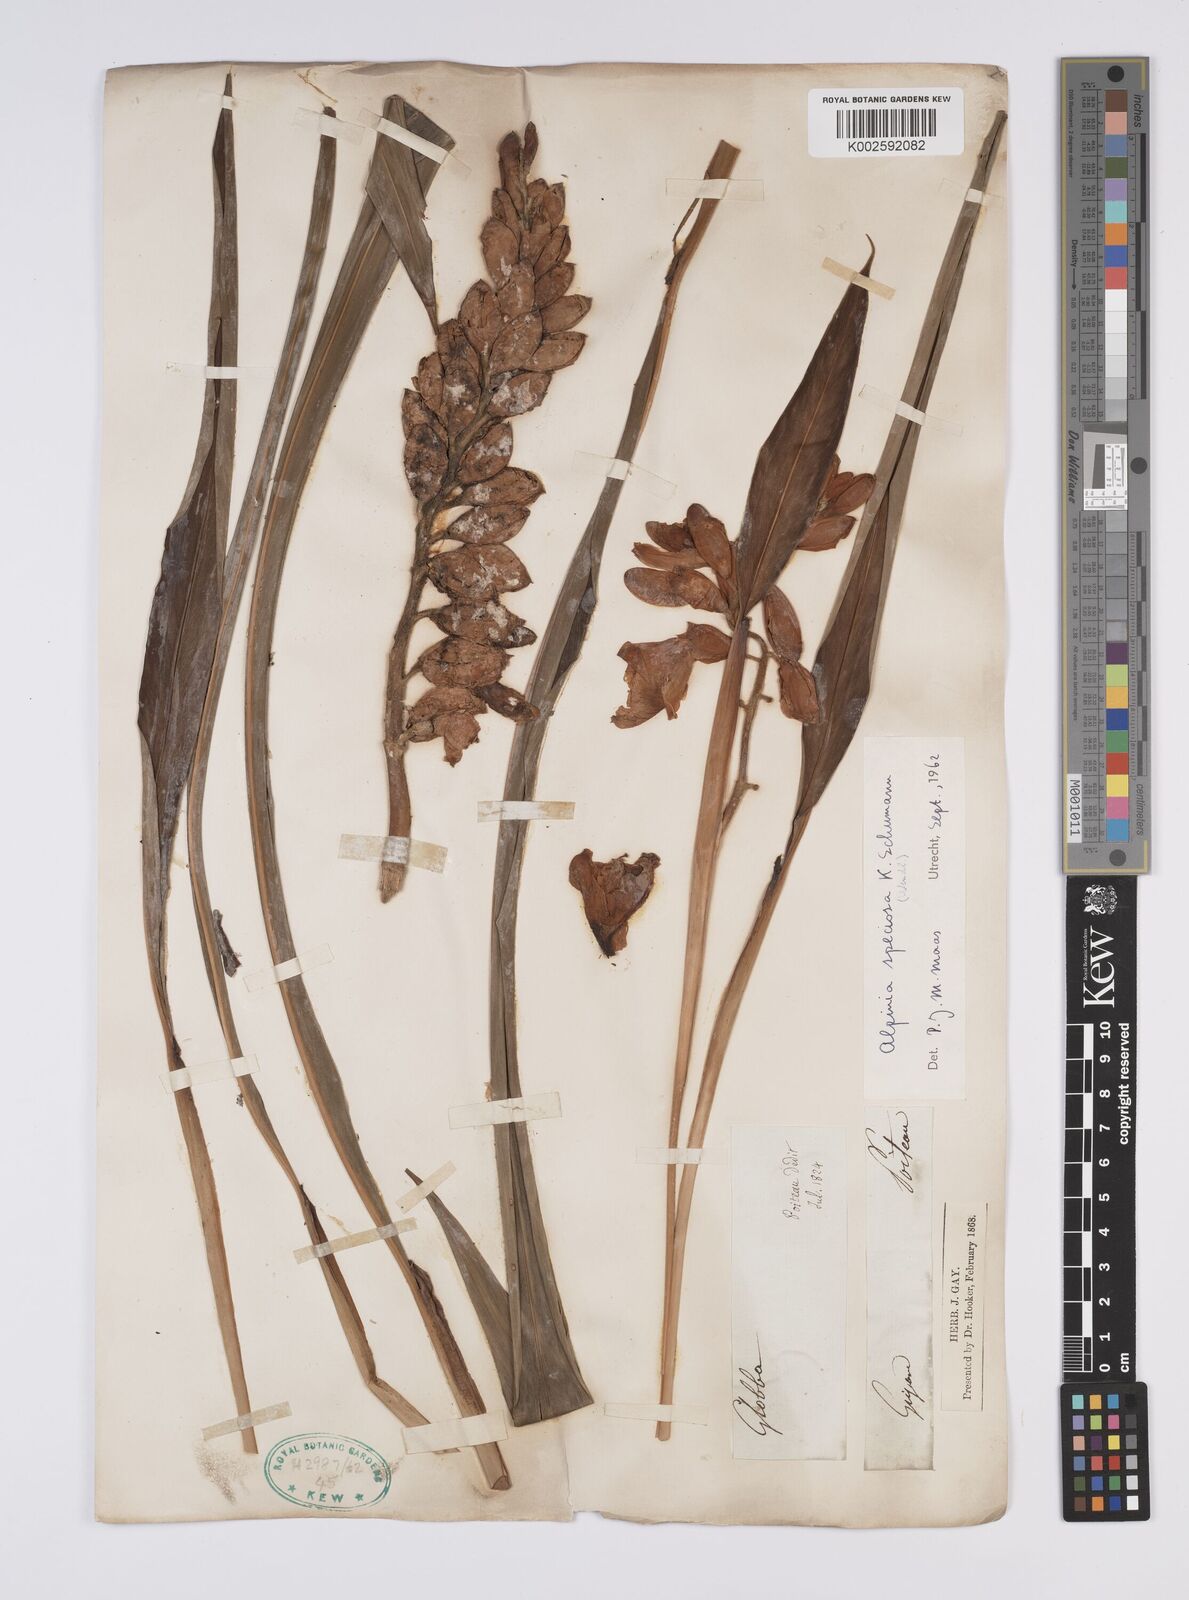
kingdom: Plantae
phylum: Tracheophyta
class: Liliopsida
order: Zingiberales
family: Zingiberaceae
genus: Alpinia
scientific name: Alpinia zerumbet
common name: Shellplant
